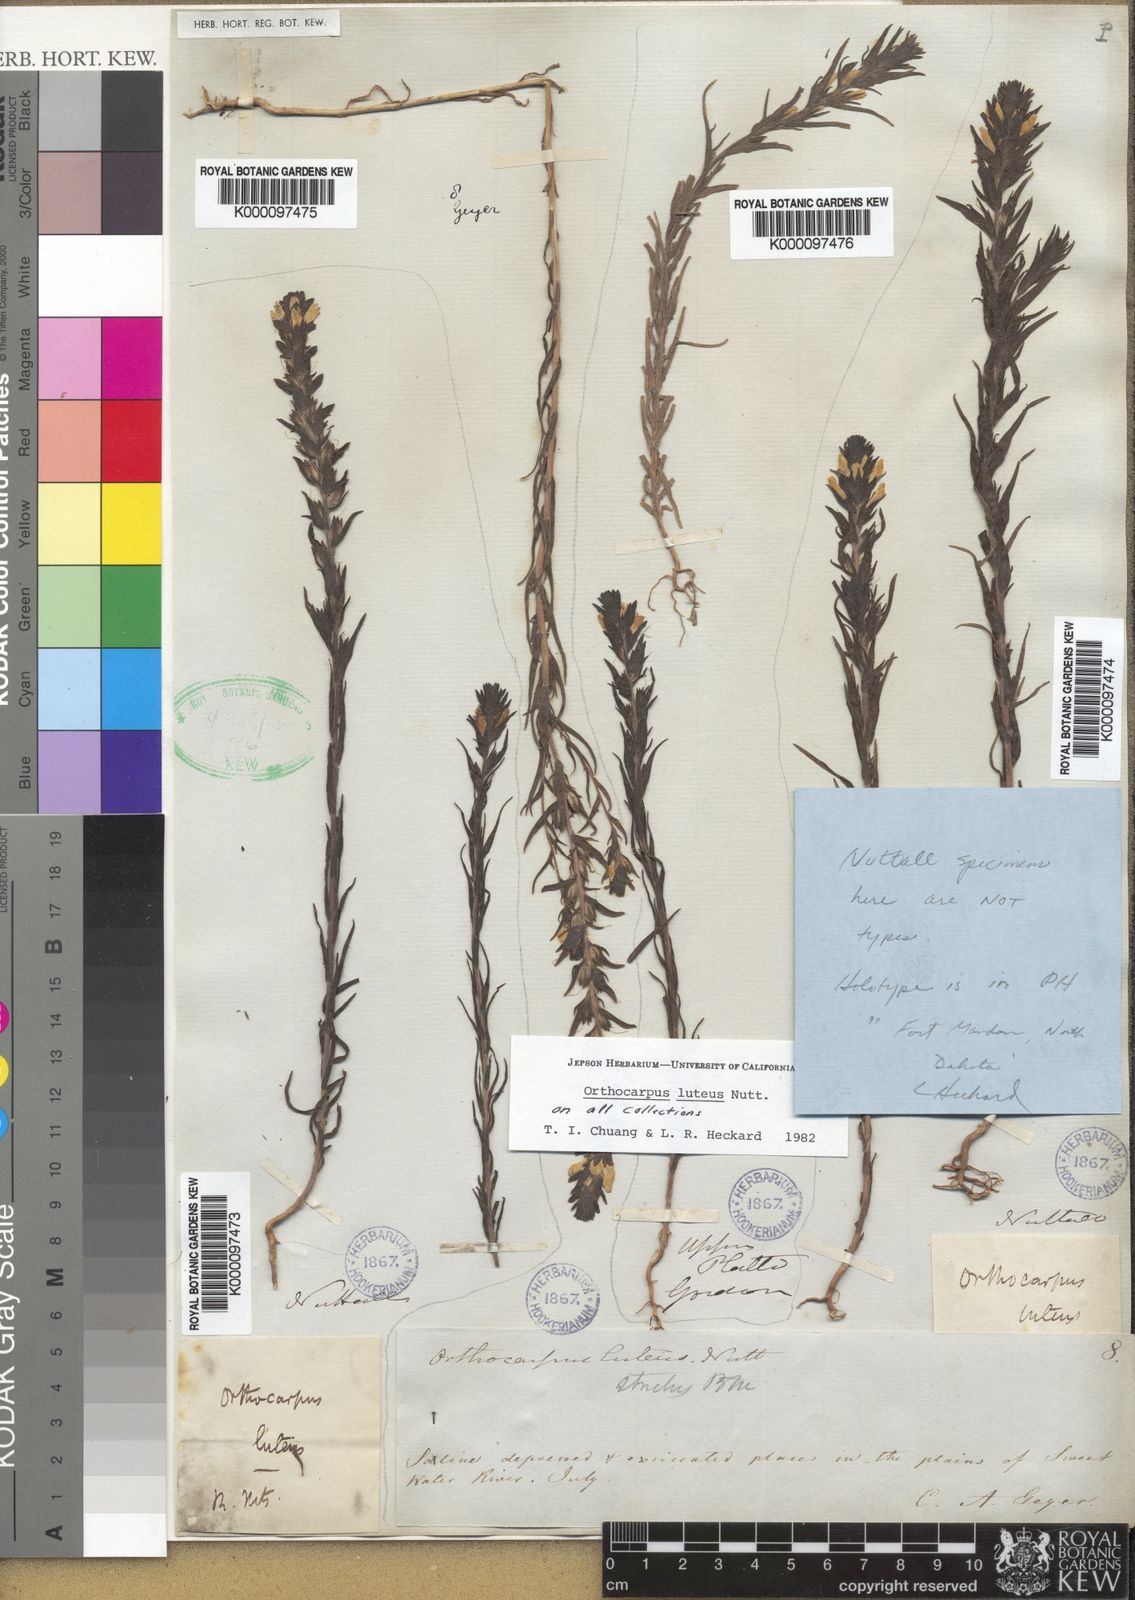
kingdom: Plantae
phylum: Tracheophyta
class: Magnoliopsida
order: Lamiales
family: Orobanchaceae
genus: Orthocarpus
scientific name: Orthocarpus luteus
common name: Golden-tongue owl's-clover
